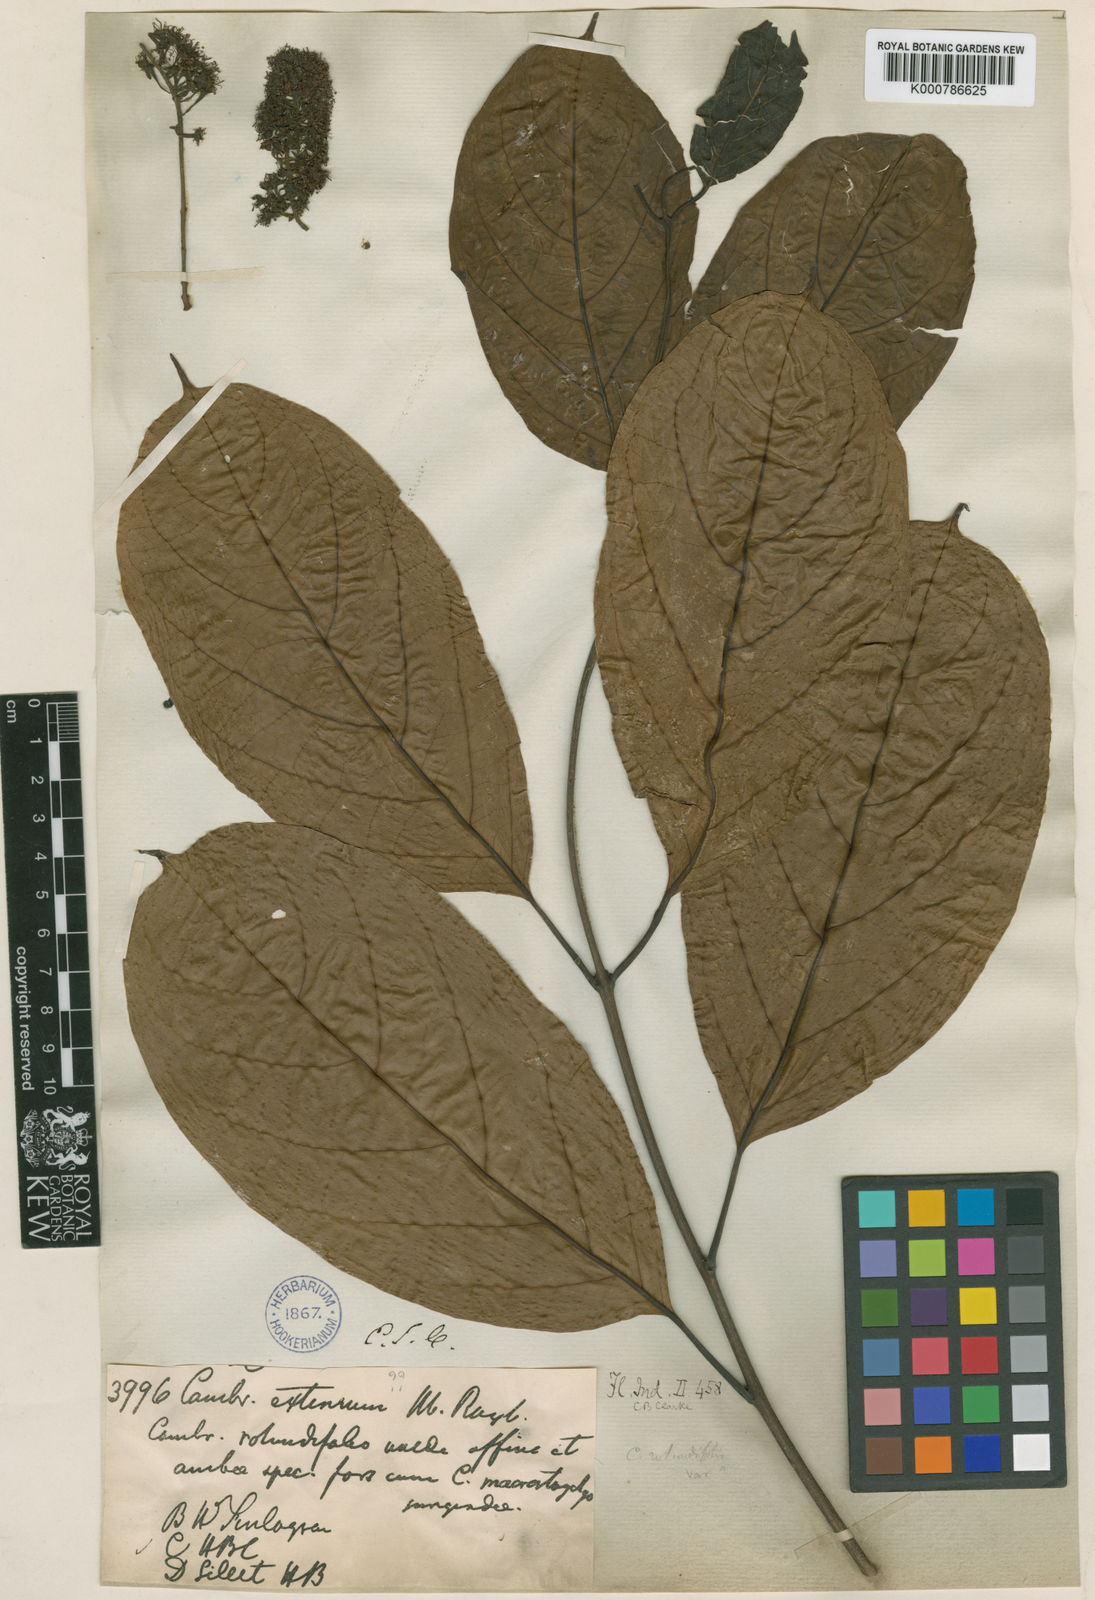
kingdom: Plantae
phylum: Tracheophyta
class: Magnoliopsida
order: Myrtales
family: Combretaceae
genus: Combretum
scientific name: Combretum latifolium
